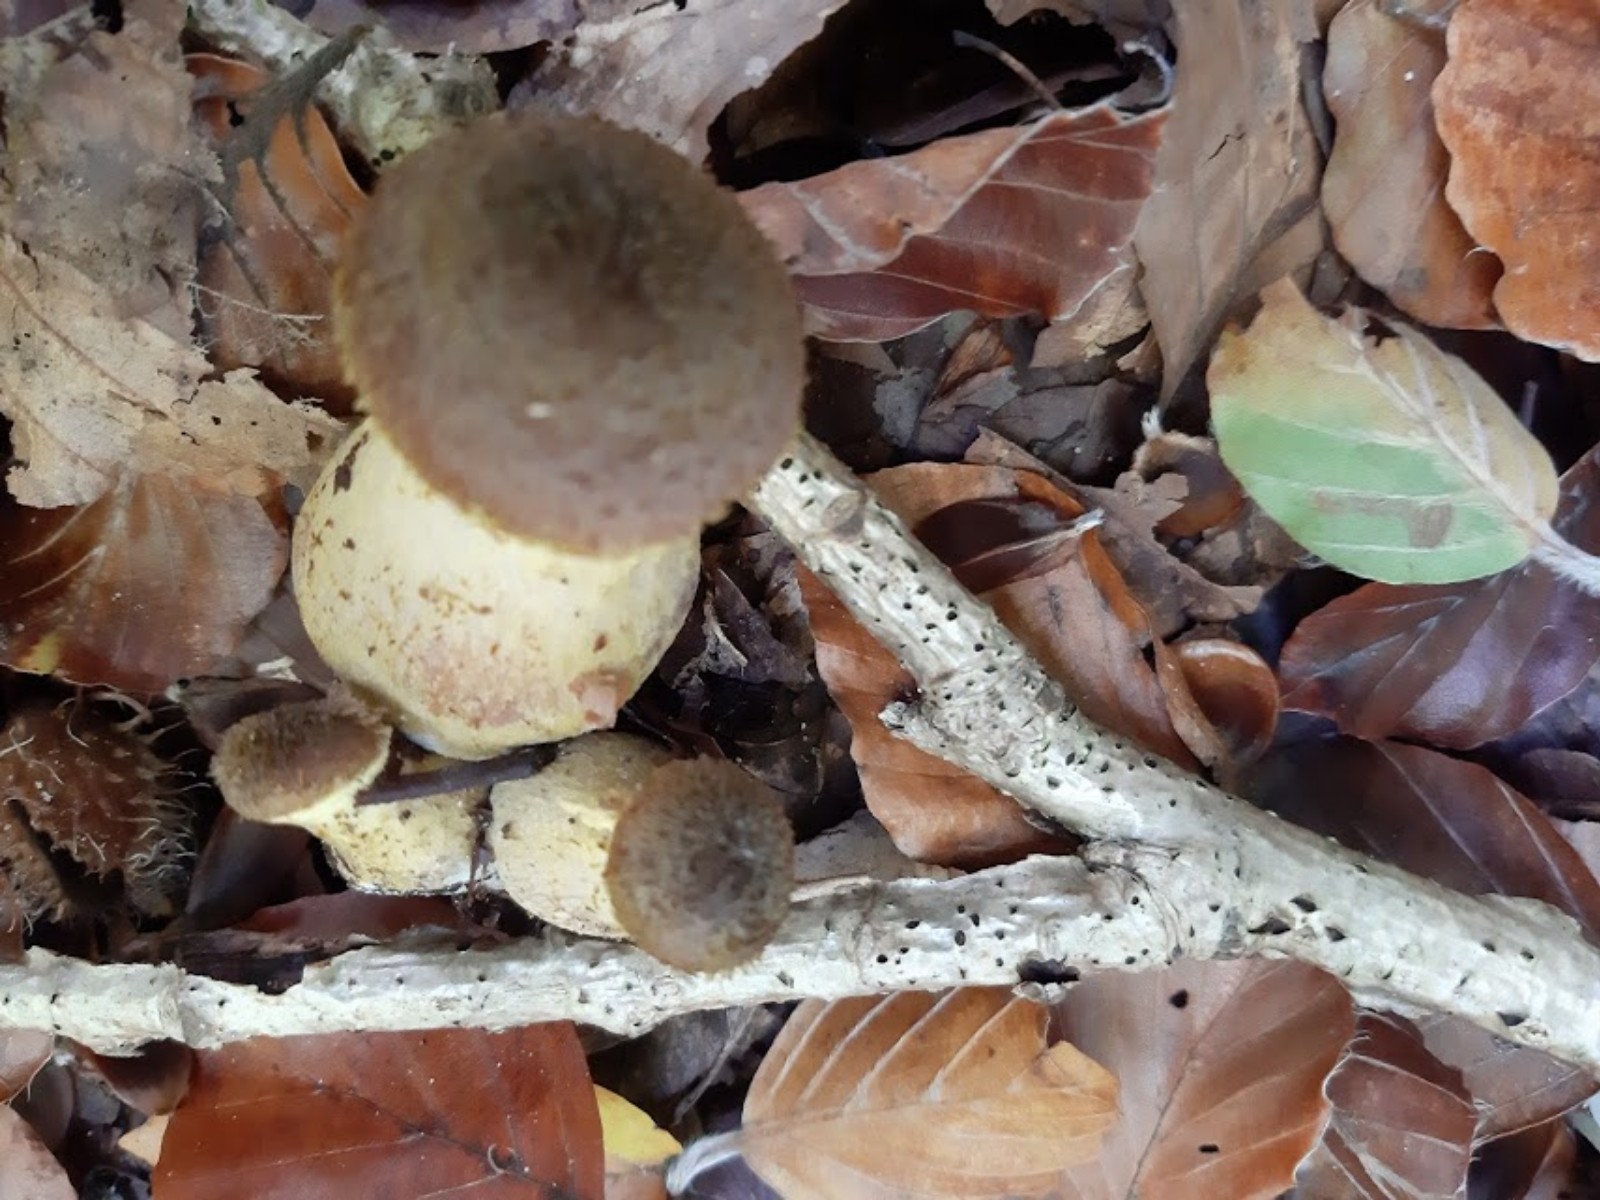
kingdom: Fungi
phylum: Basidiomycota
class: Agaricomycetes
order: Agaricales
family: Physalacriaceae
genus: Armillaria
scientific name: Armillaria lutea
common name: køllestokket honningsvamp
